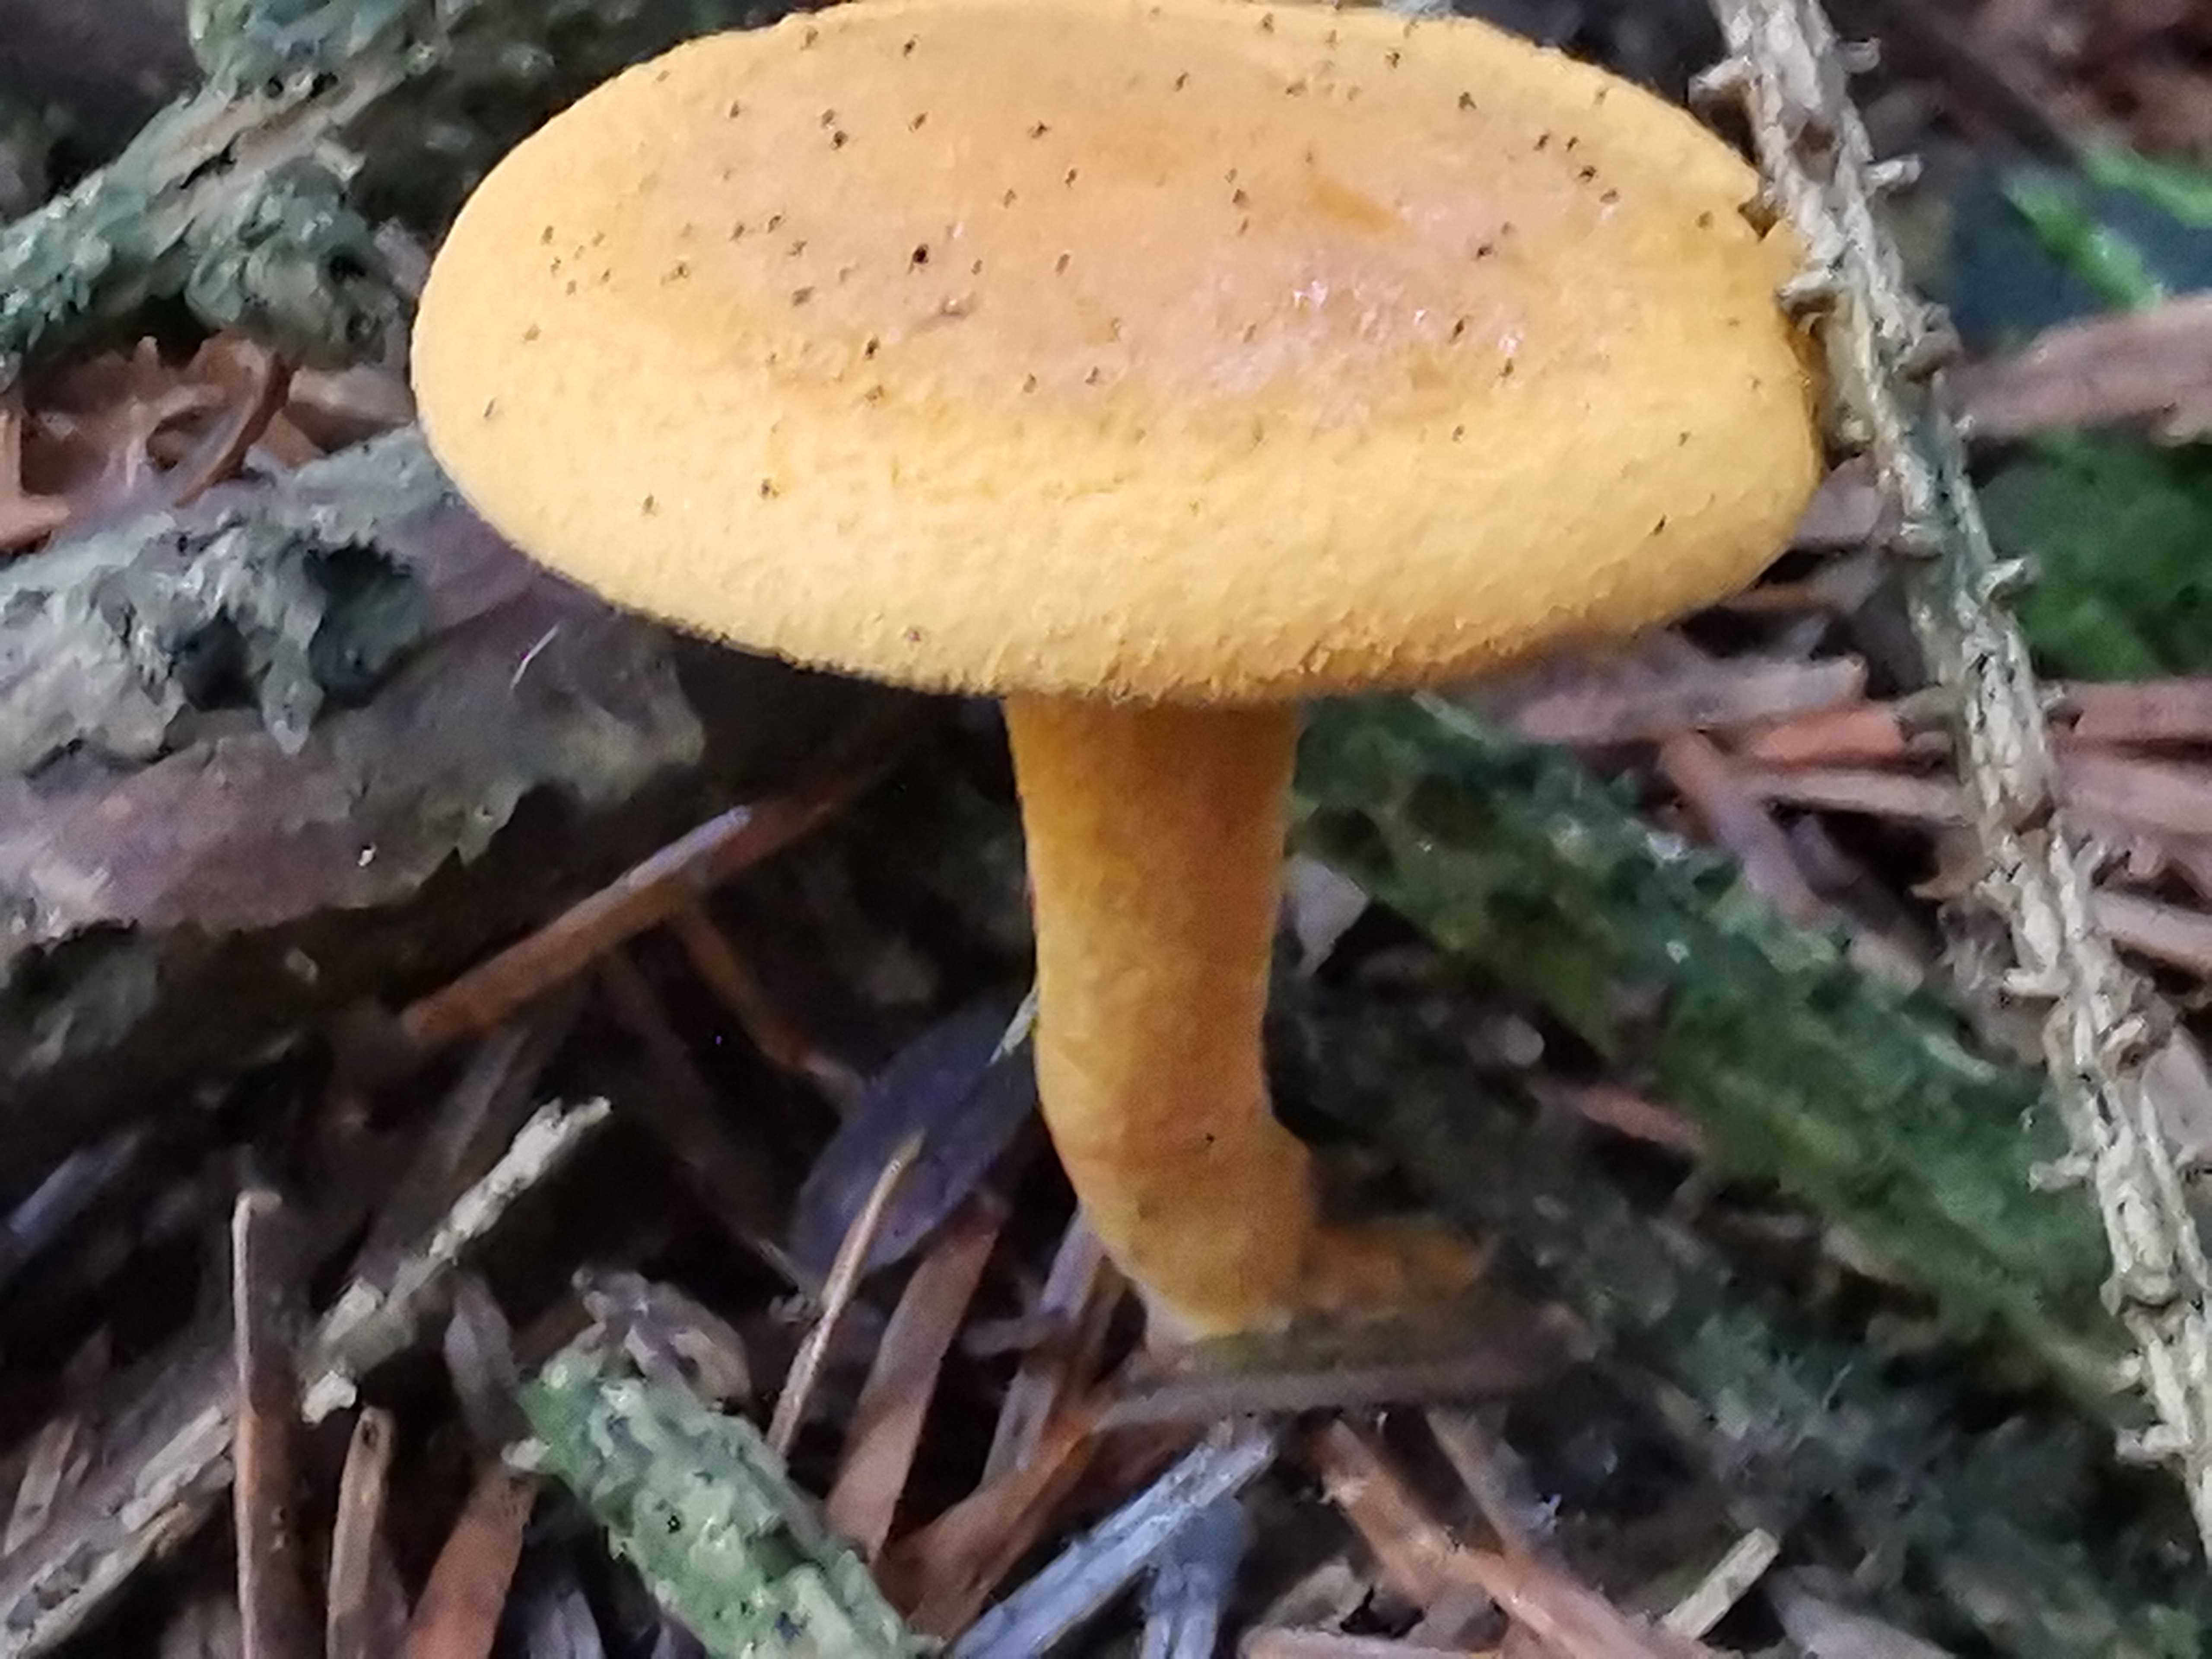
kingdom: Fungi
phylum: Basidiomycota
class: Agaricomycetes
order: Boletales
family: Hygrophoropsidaceae
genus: Hygrophoropsis
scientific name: Hygrophoropsis aurantiaca
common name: almindelig orangekantarel
